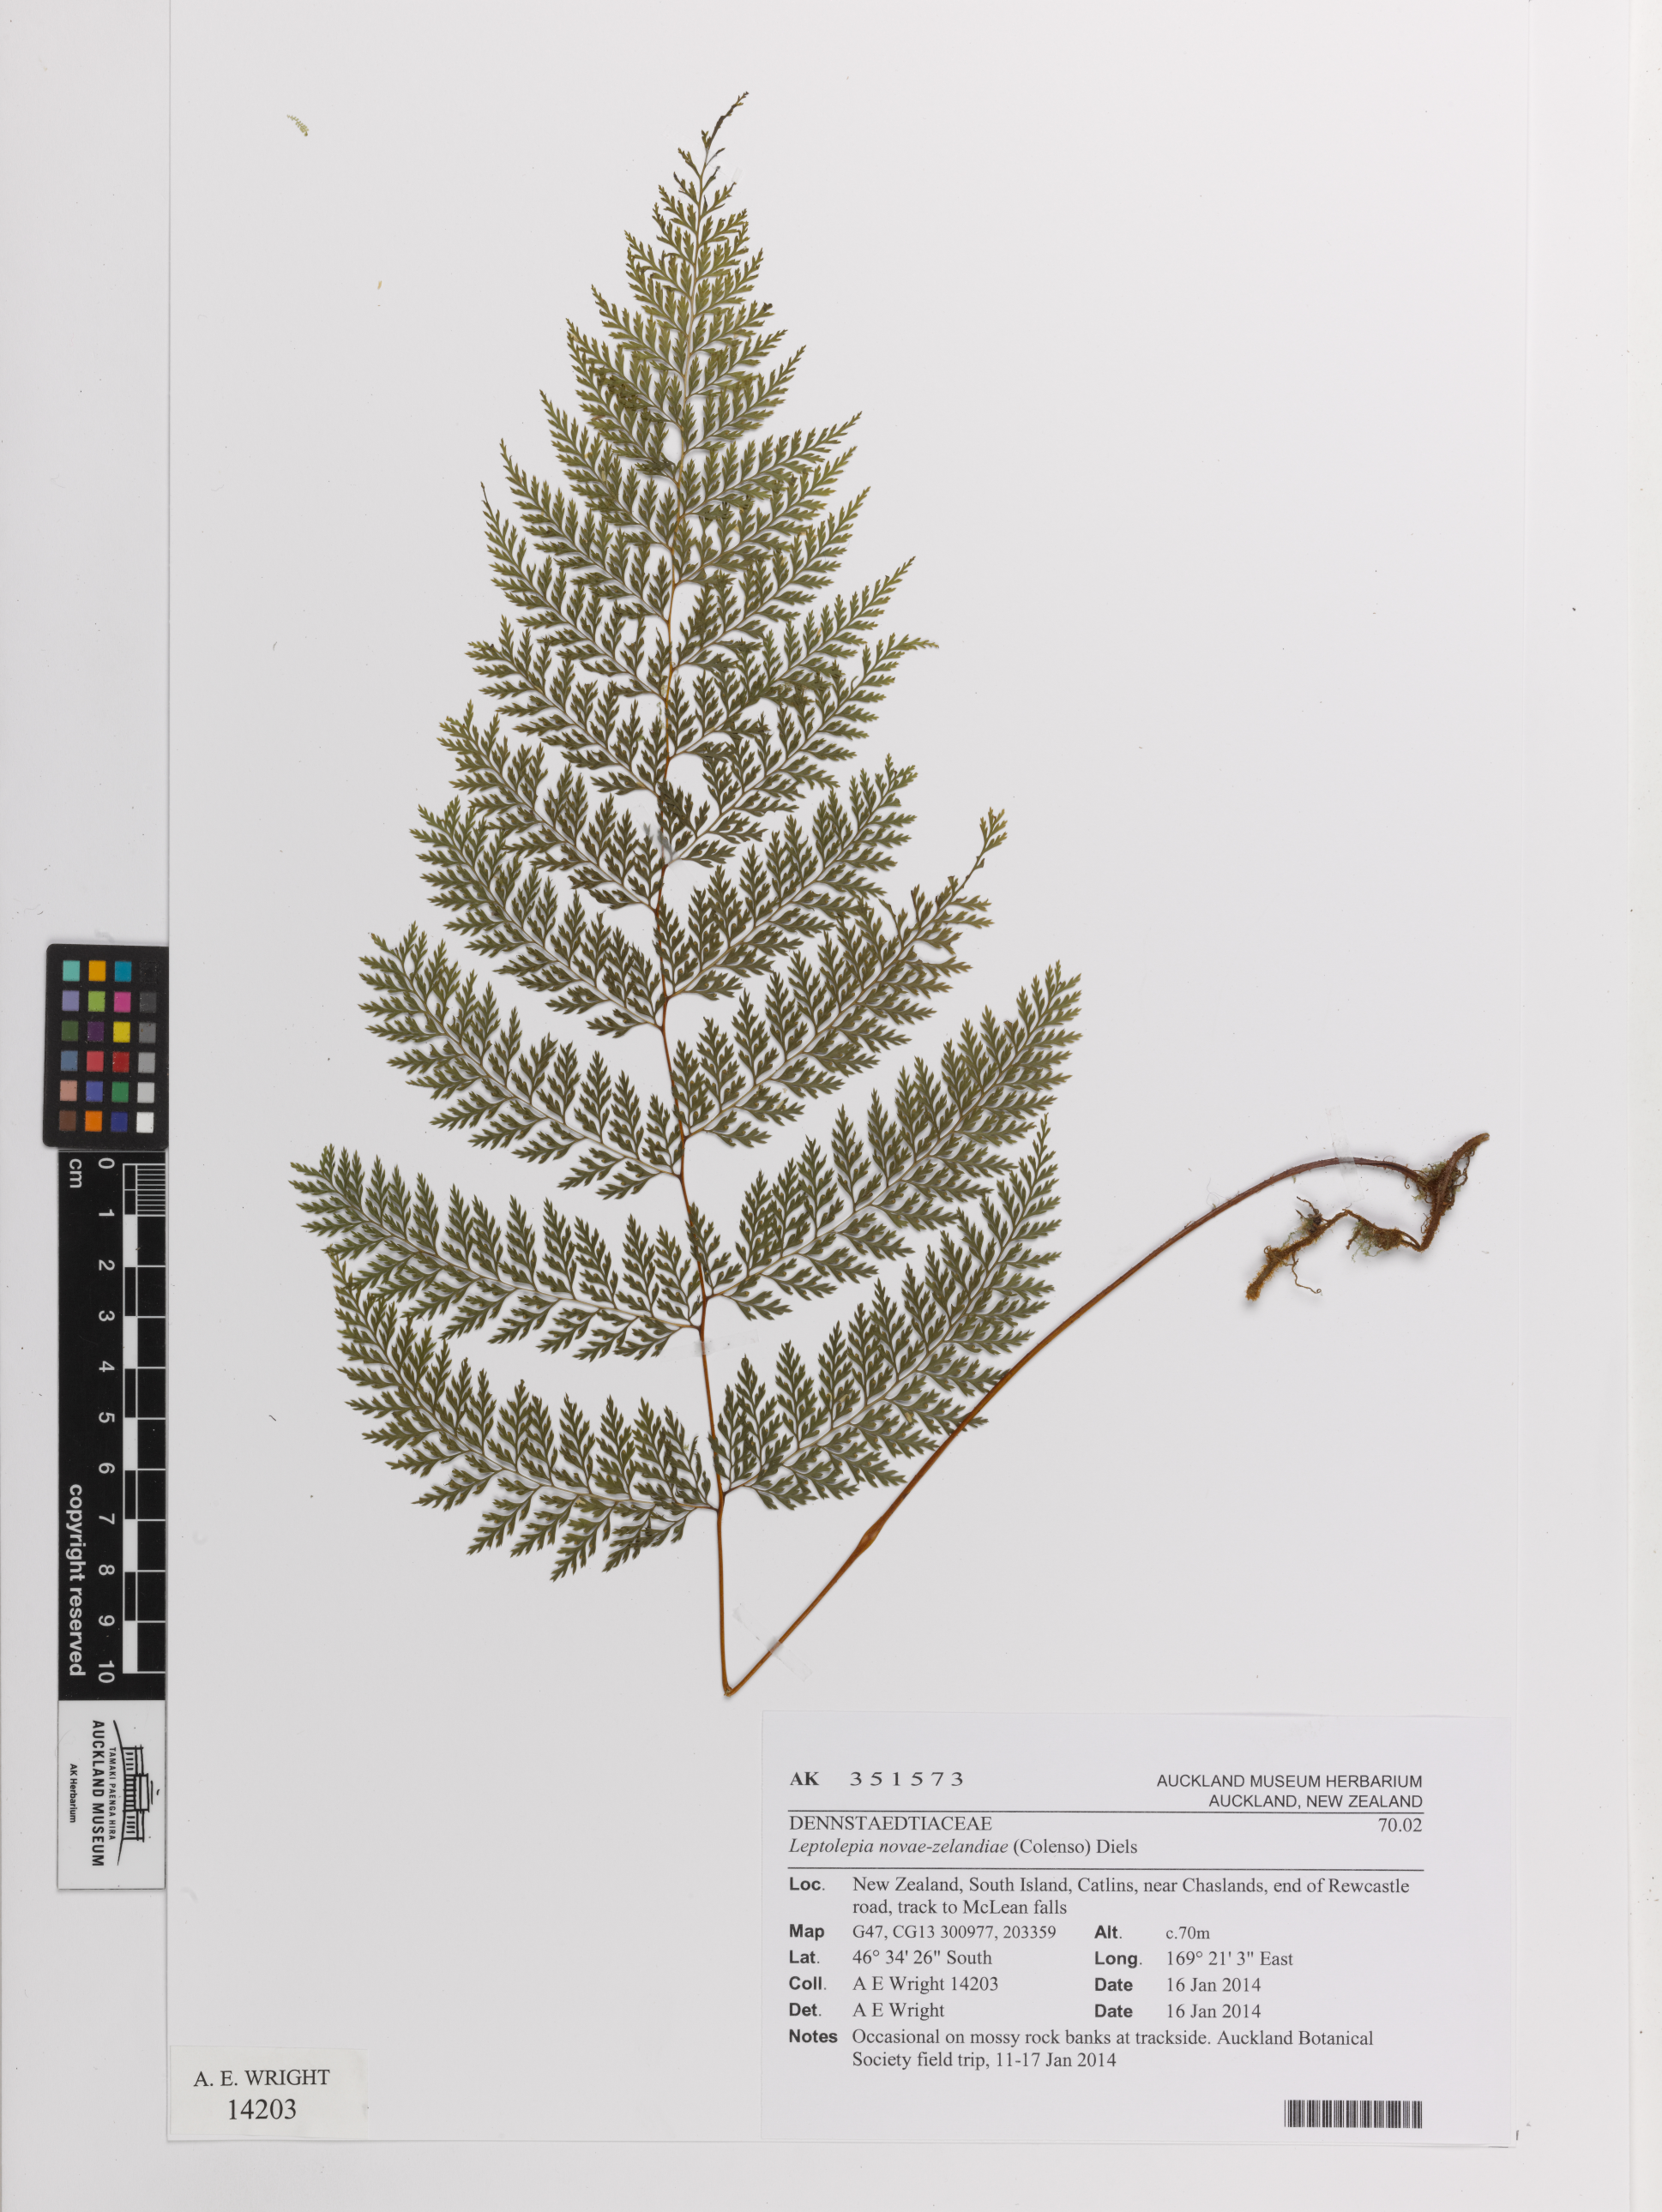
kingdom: Plantae
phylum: Tracheophyta
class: Polypodiopsida
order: Polypodiales
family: Dennstaedtiaceae
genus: Dennstaedtia
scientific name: Dennstaedtia novae-zelandiae
